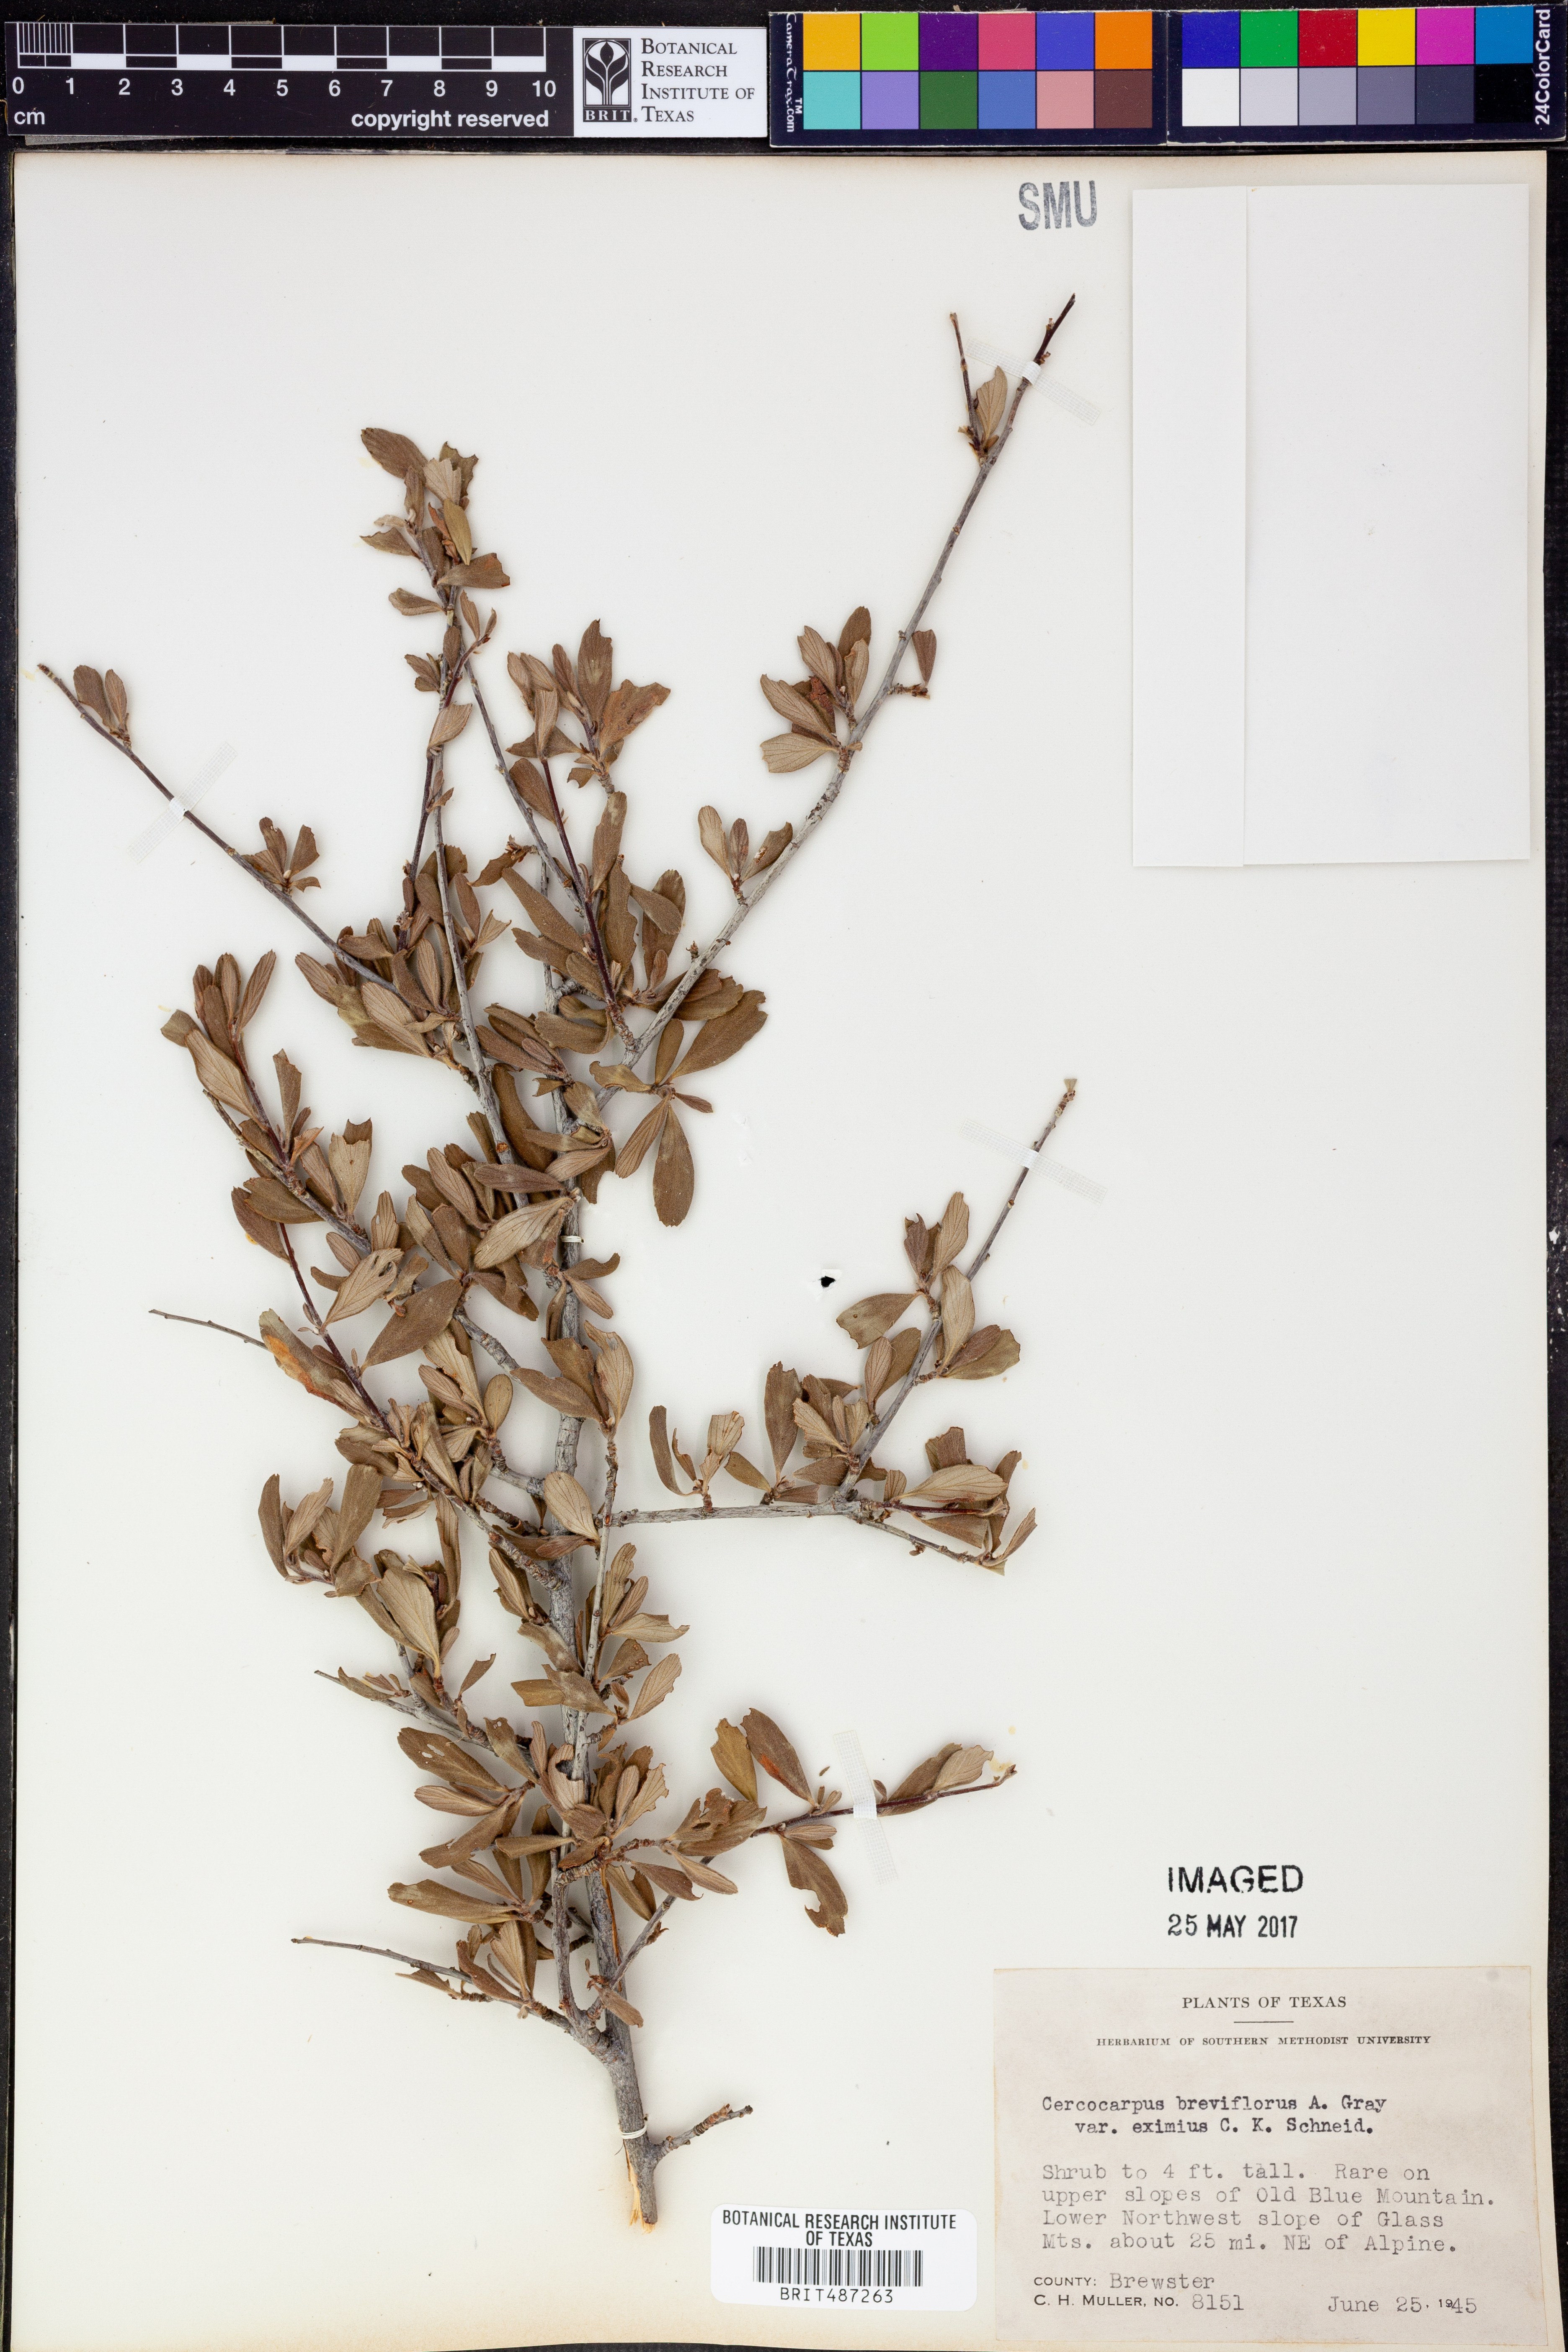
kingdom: Plantae
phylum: Tracheophyta
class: Magnoliopsida
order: Rosales
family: Rosaceae
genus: Cercocarpus
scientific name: Cercocarpus breviflorus
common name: Wright's mountain-mahogany
